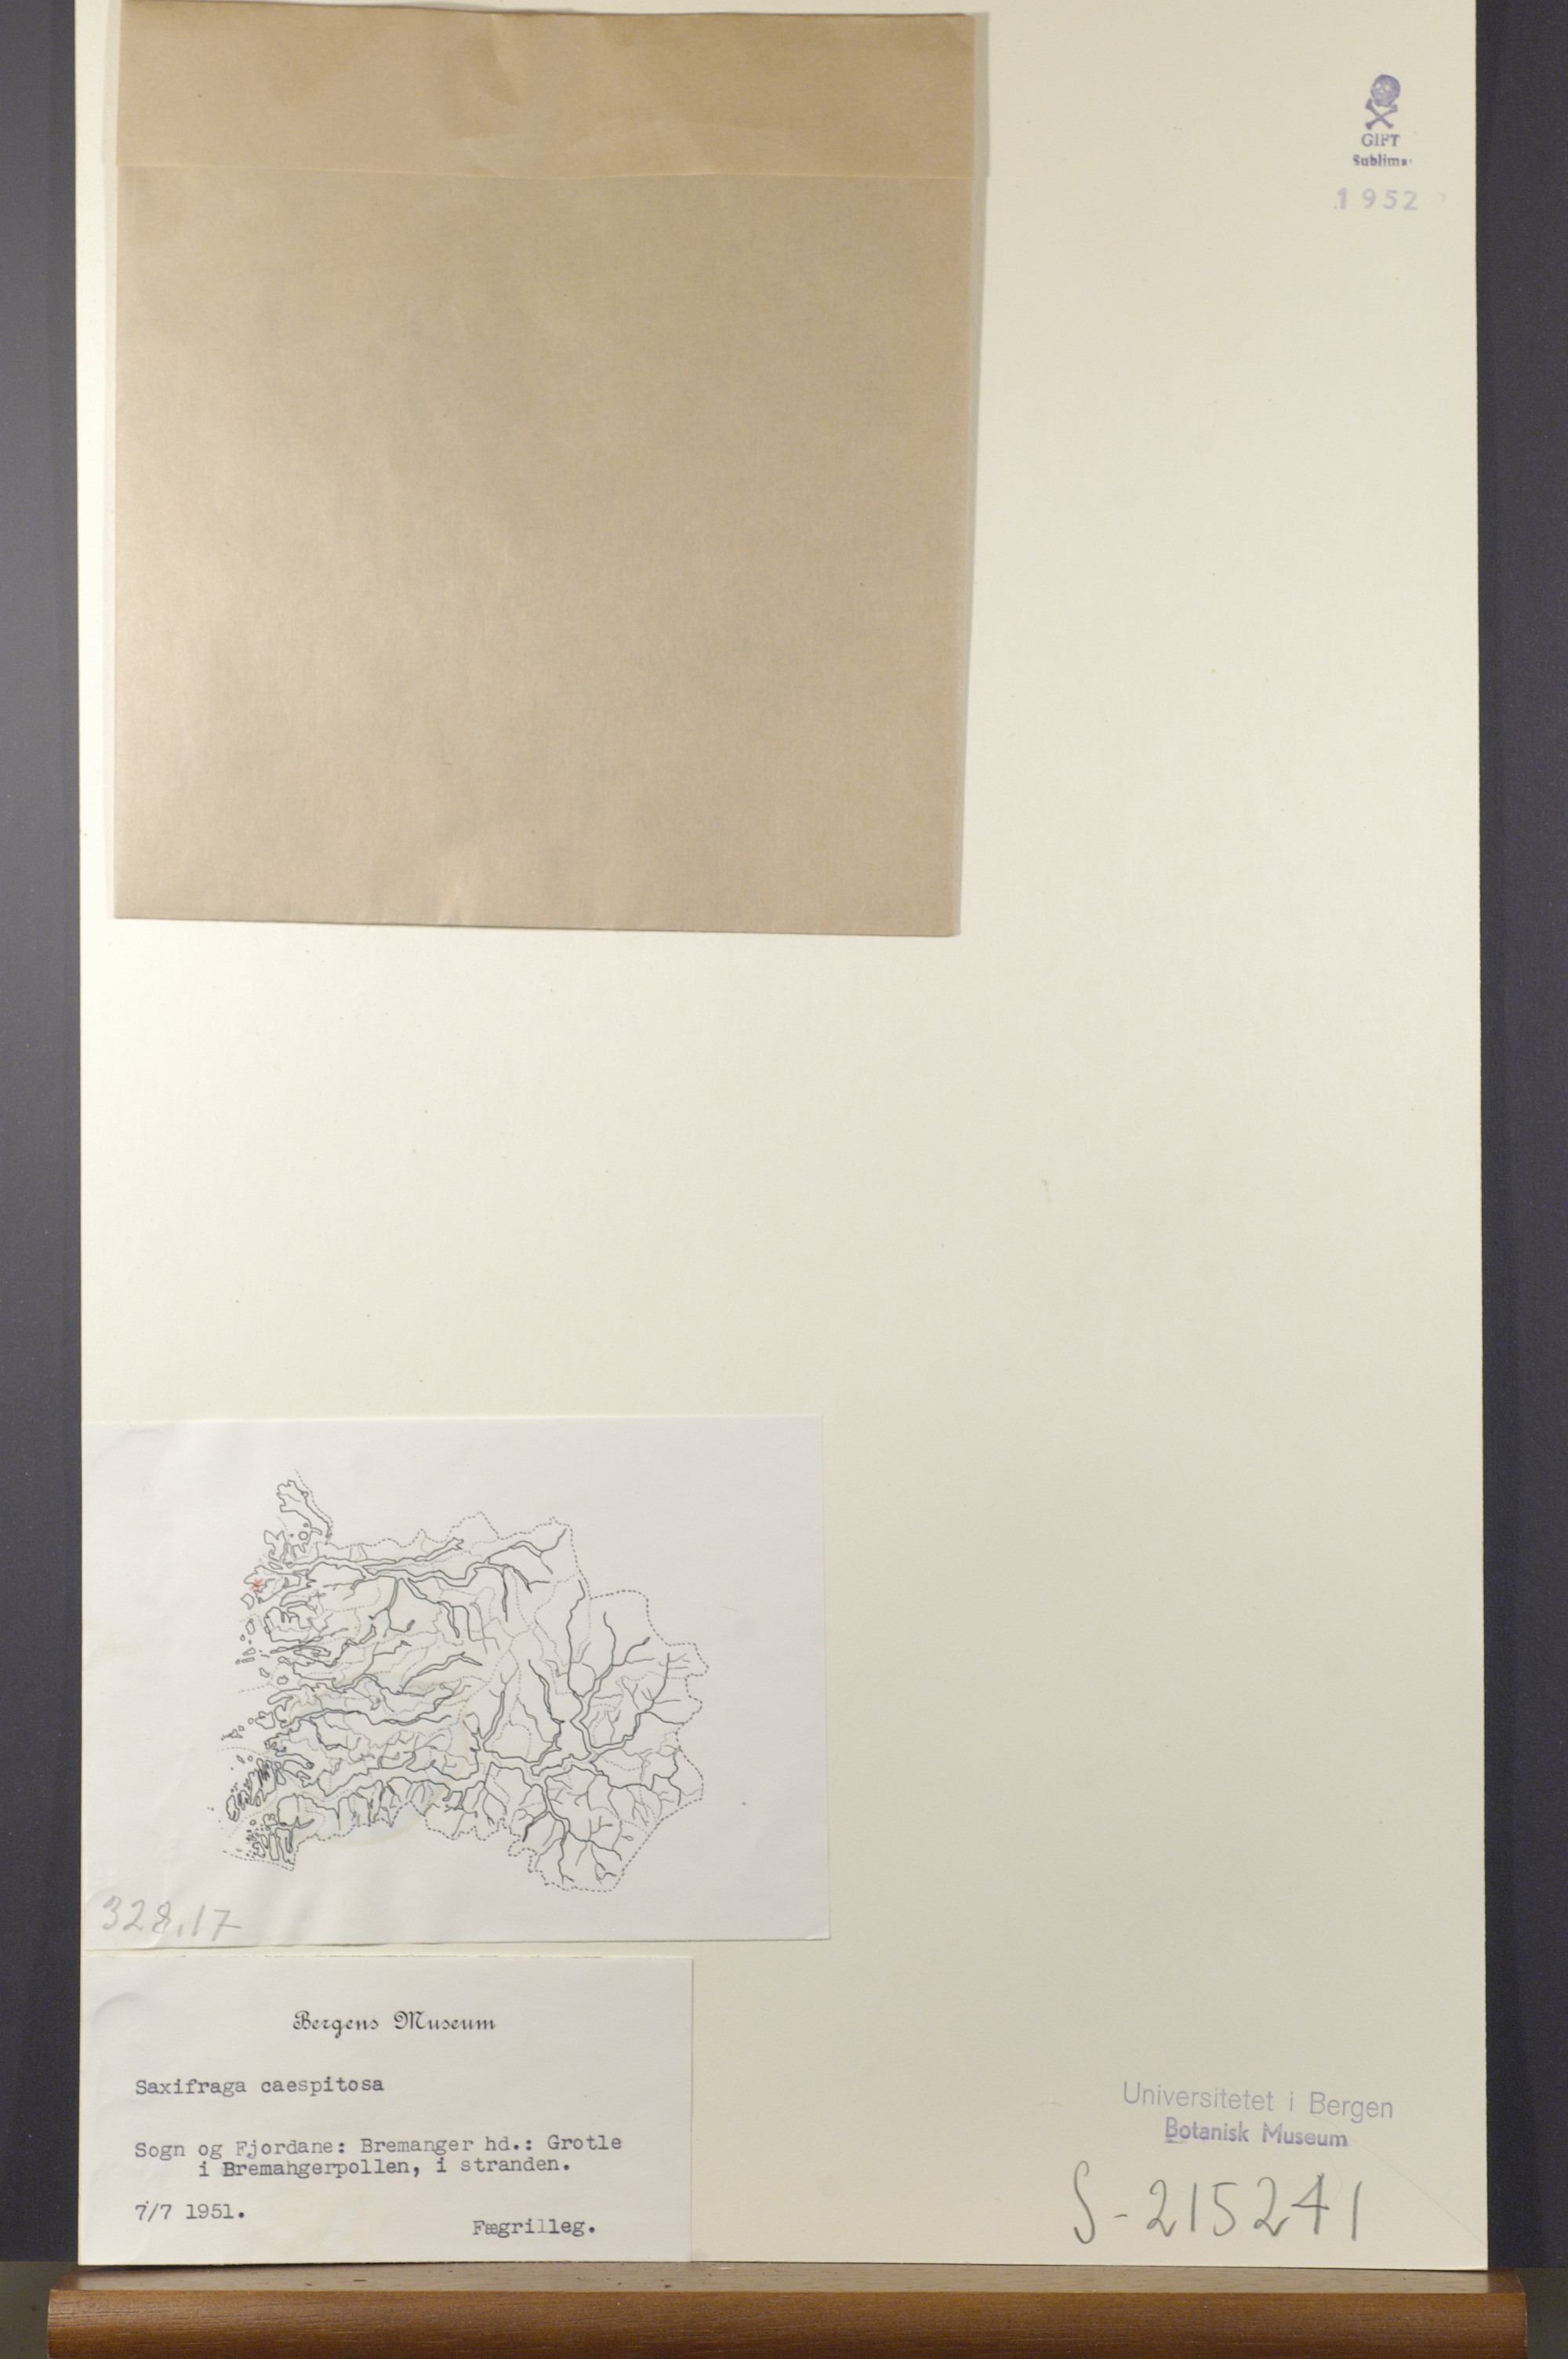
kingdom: Plantae
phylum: Tracheophyta
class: Magnoliopsida
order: Saxifragales
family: Saxifragaceae
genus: Saxifraga
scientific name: Saxifraga cespitosa
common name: Tufted saxifrage
